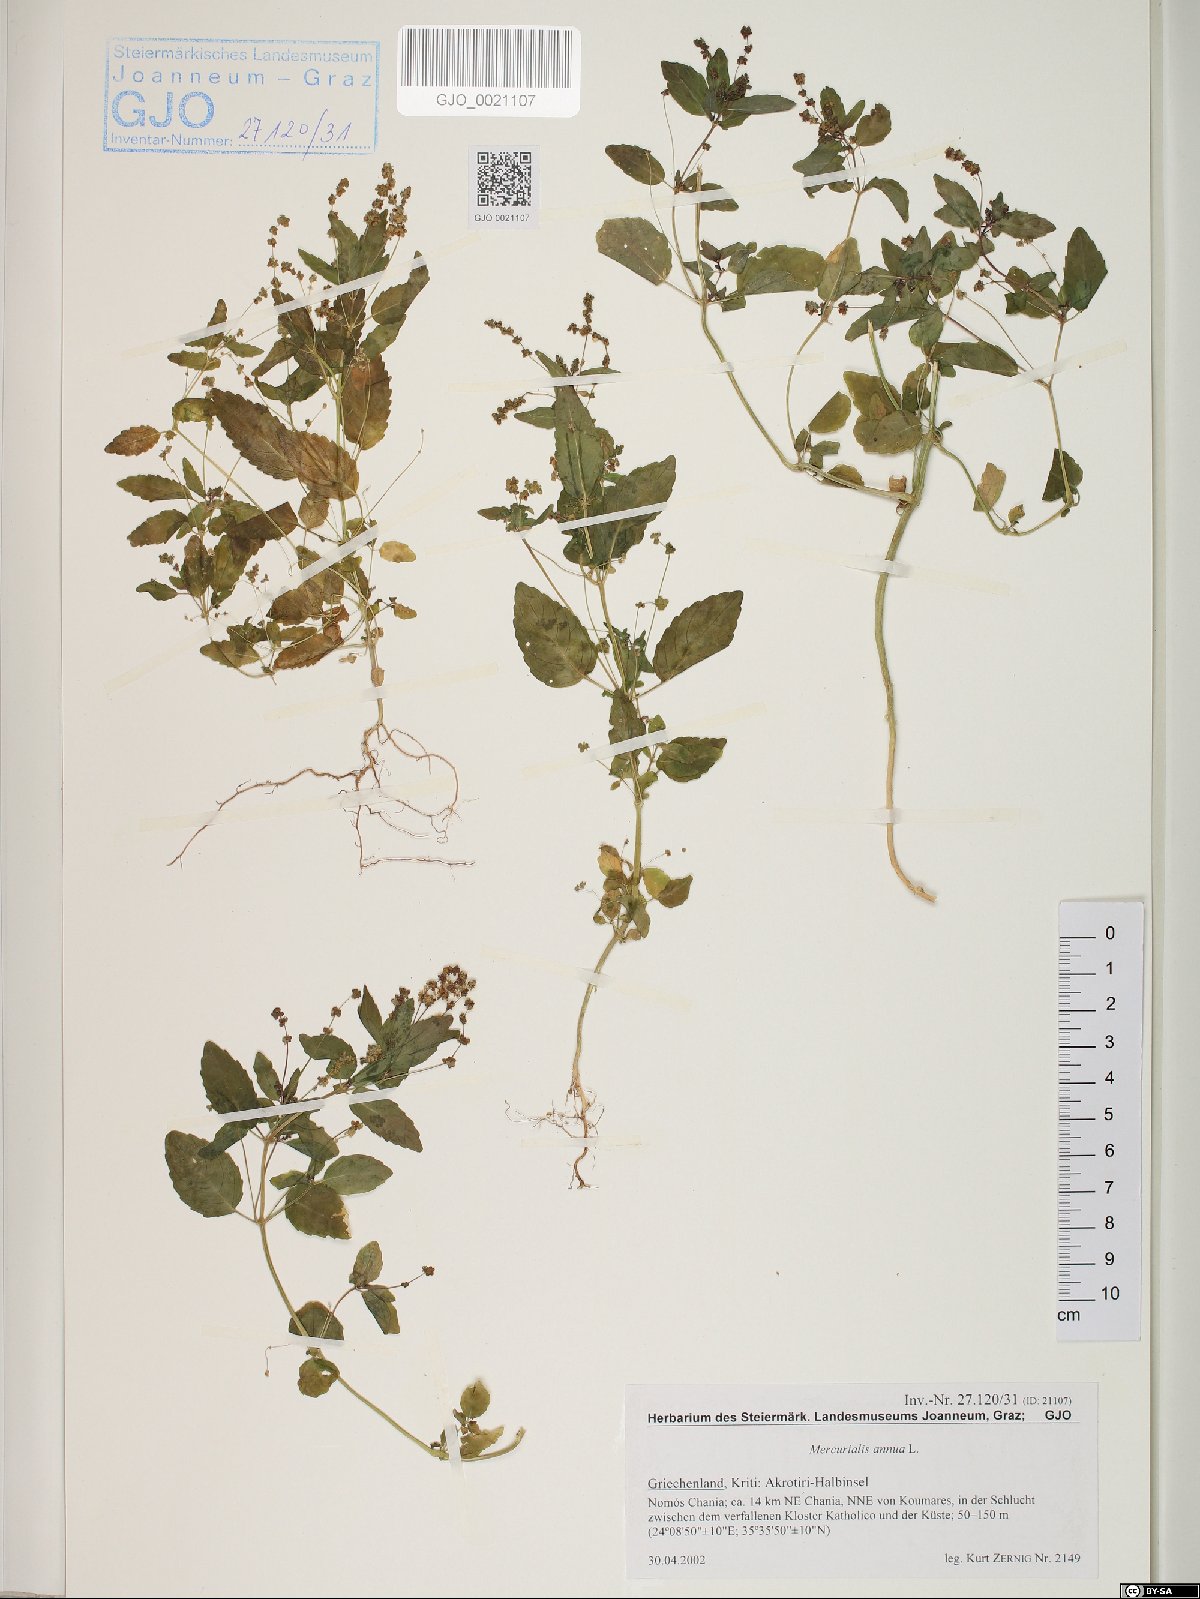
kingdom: Plantae
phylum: Tracheophyta
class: Magnoliopsida
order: Malpighiales
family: Euphorbiaceae
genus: Mercurialis
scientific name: Mercurialis annua
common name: Annual mercury
